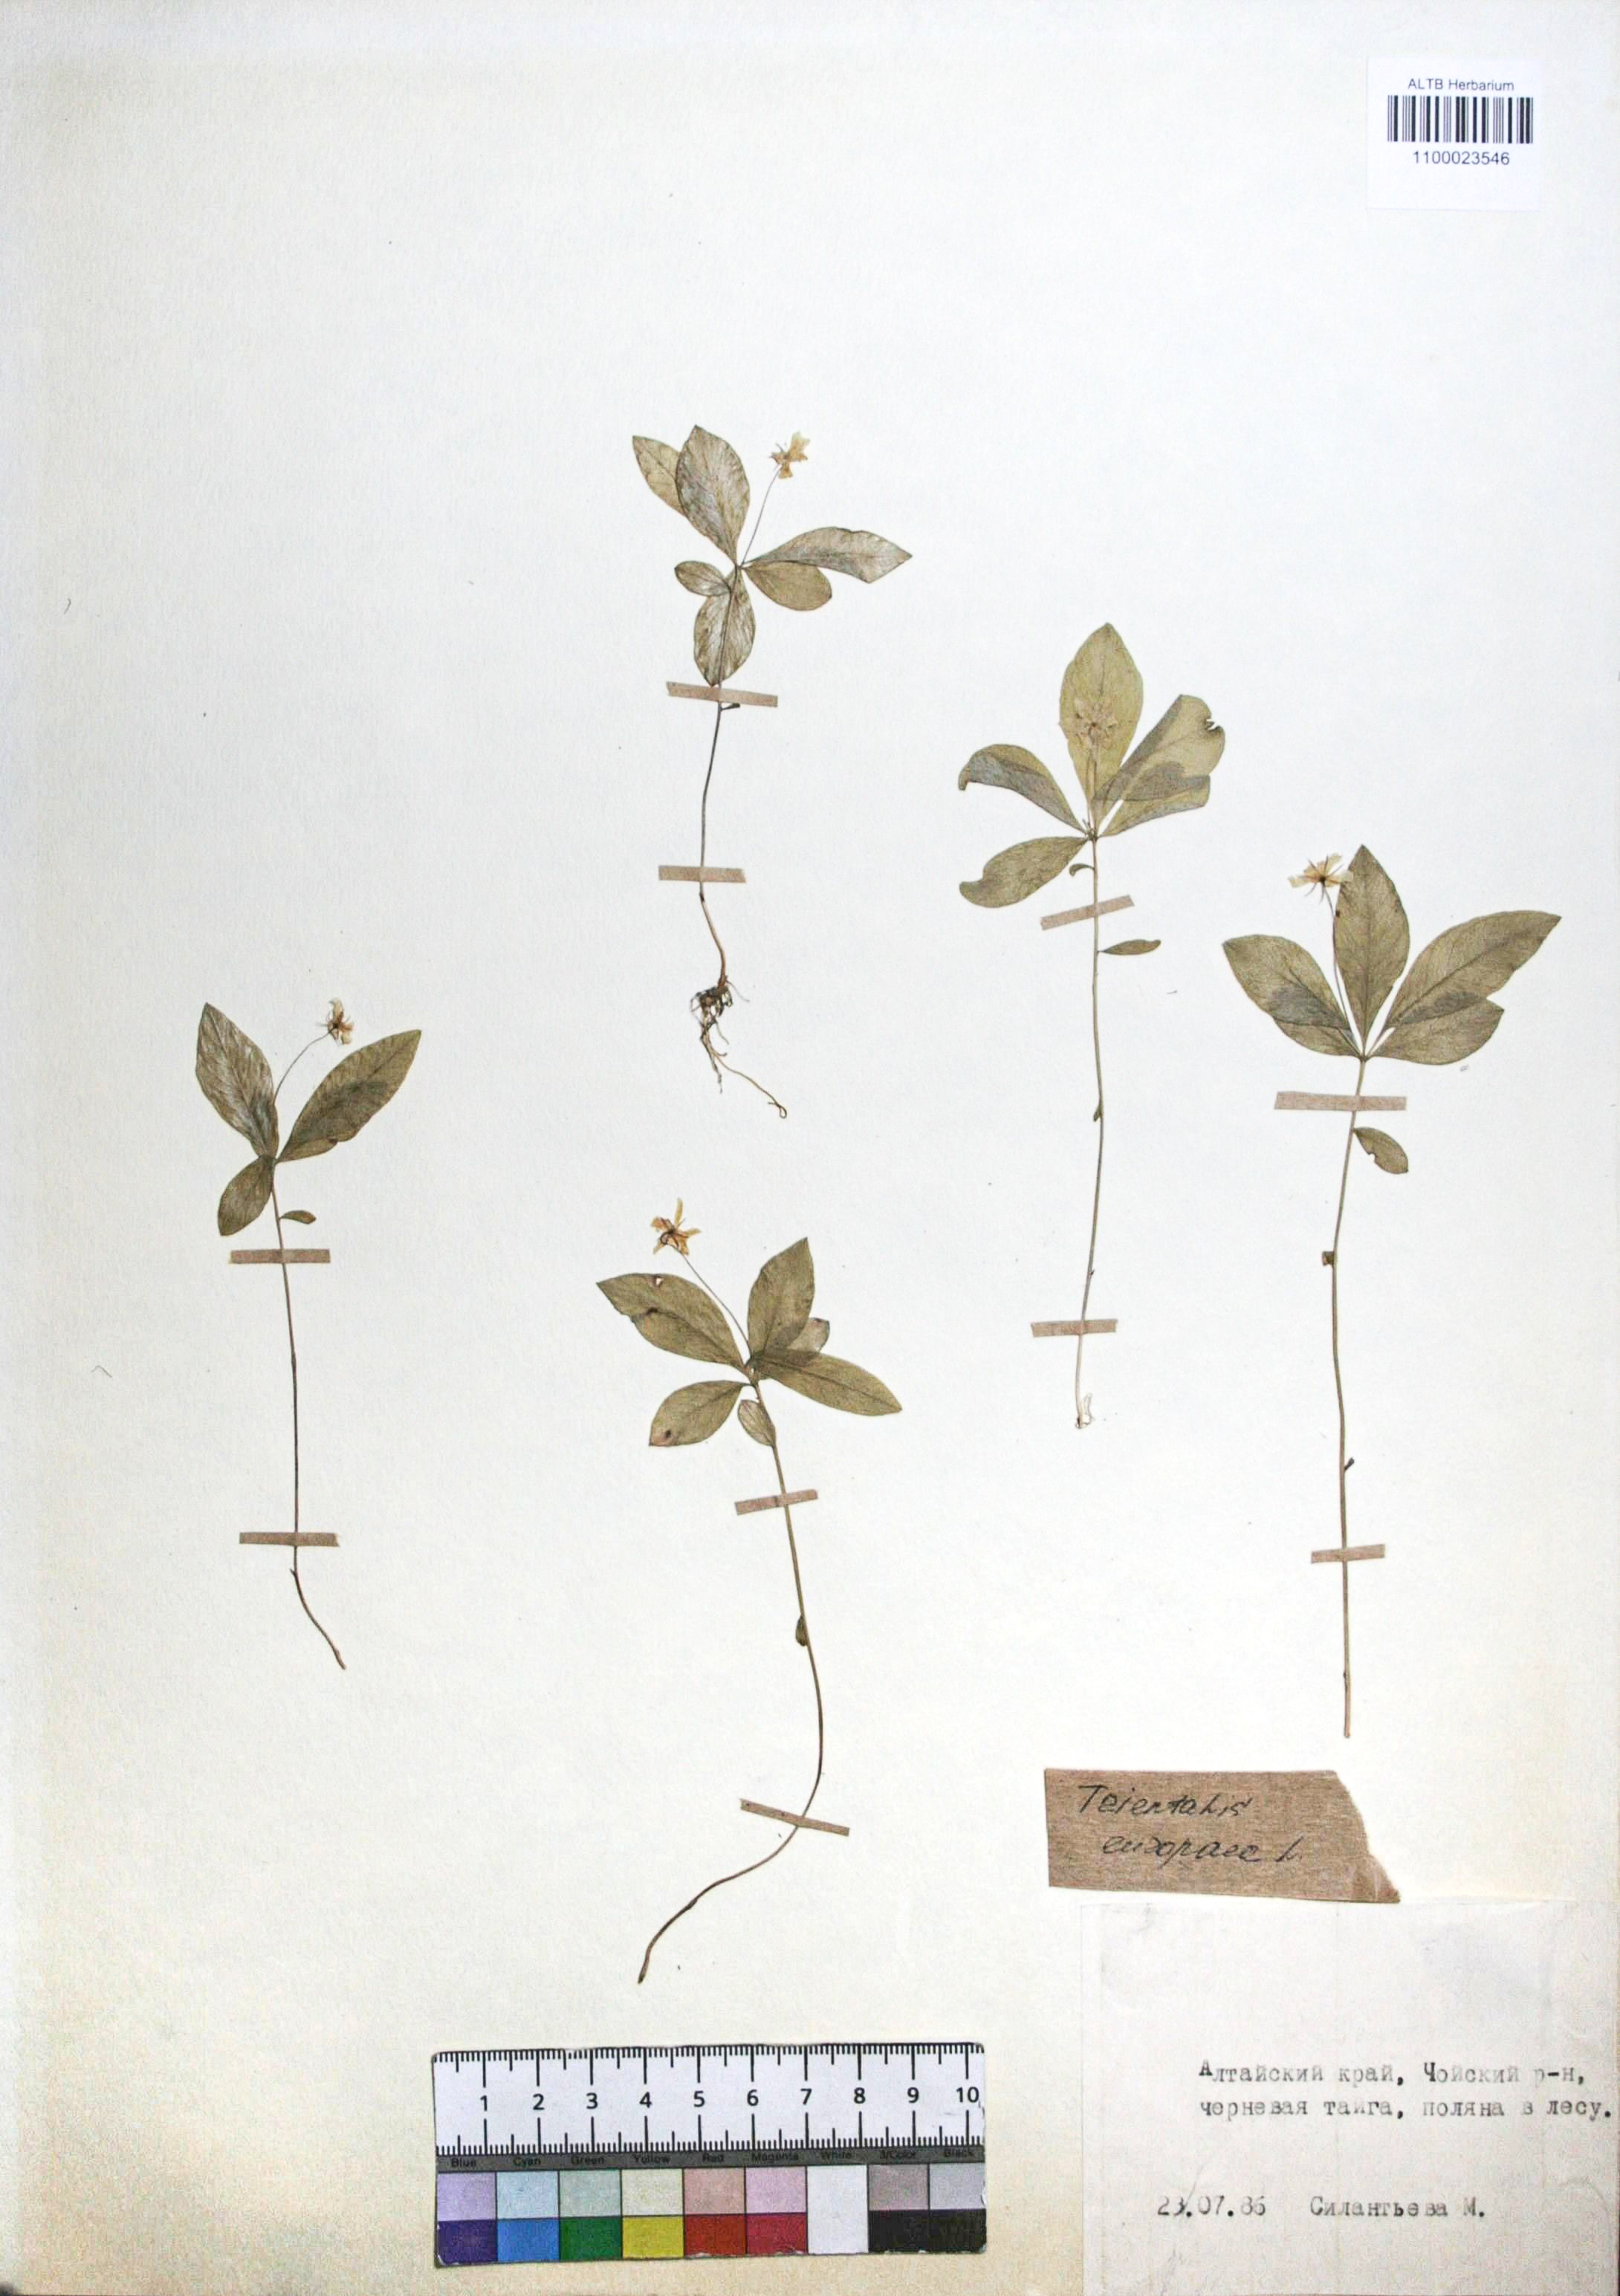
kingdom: Plantae
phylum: Tracheophyta
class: Magnoliopsida
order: Ericales
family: Primulaceae
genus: Lysimachia
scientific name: Lysimachia europaea
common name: Arctic starflower
